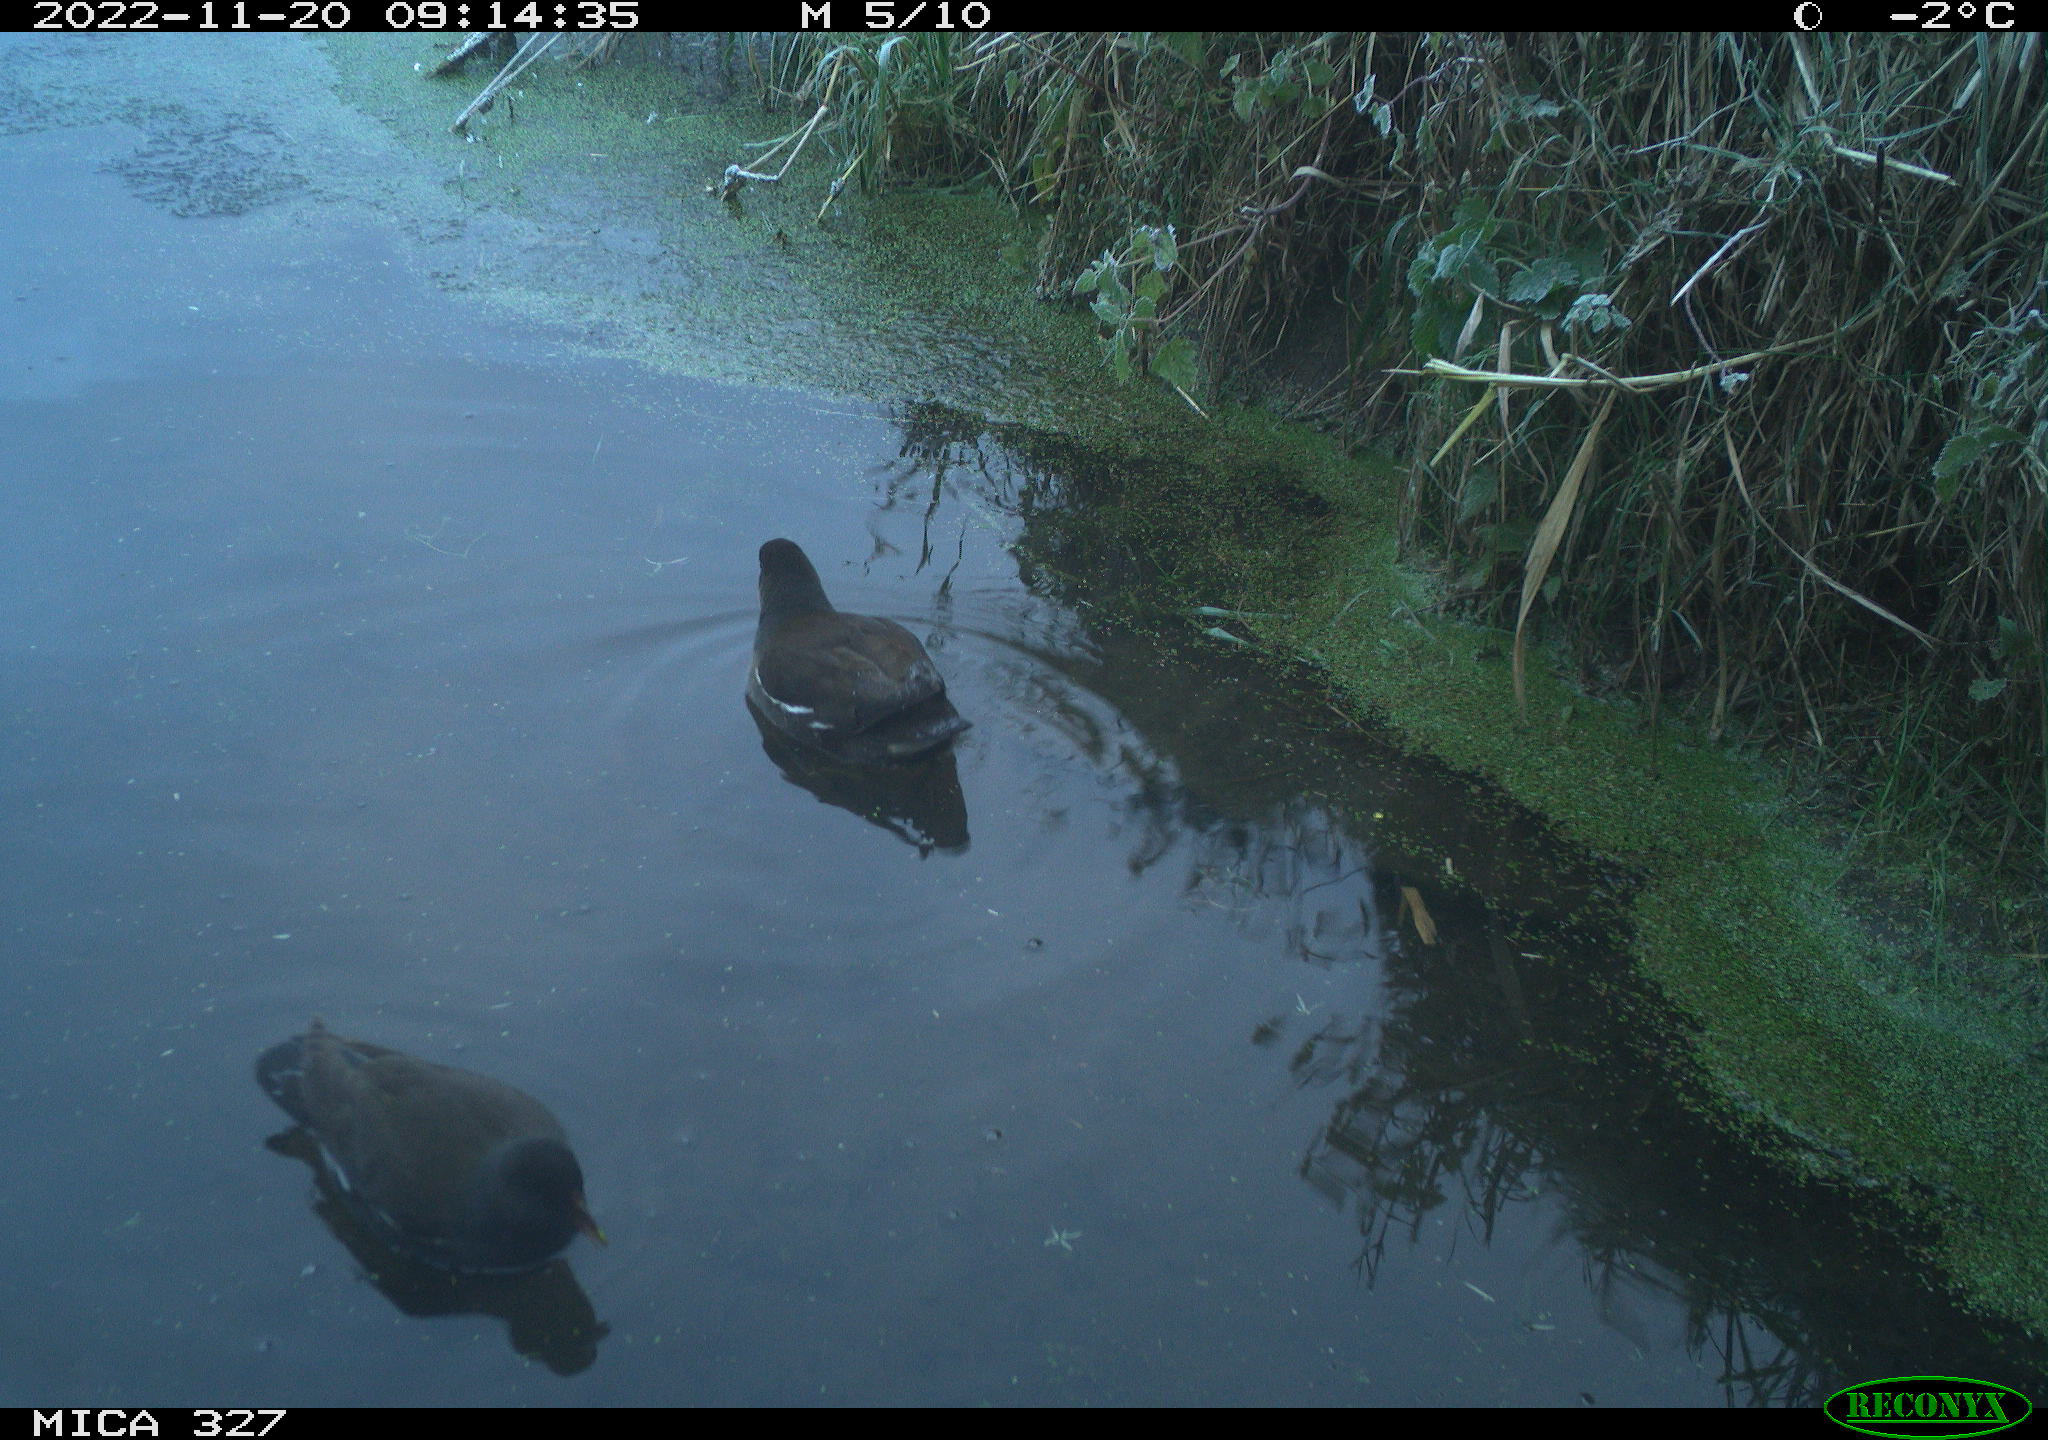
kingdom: Animalia
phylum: Chordata
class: Aves
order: Gruiformes
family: Rallidae
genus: Gallinula
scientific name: Gallinula chloropus
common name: Common moorhen
